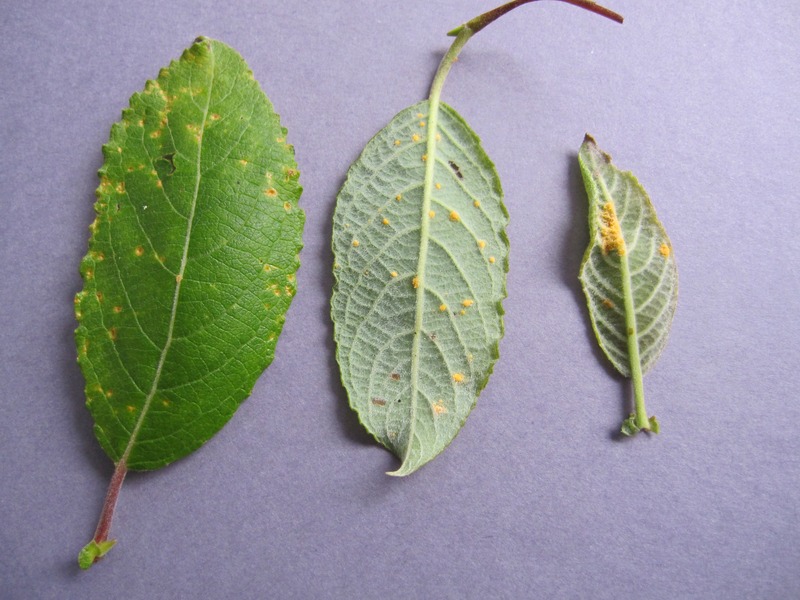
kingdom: Fungi
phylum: Basidiomycota
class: Pucciniomycetes
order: Pucciniales
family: Melampsoraceae
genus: Melampsora
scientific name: Melampsora caprearum
